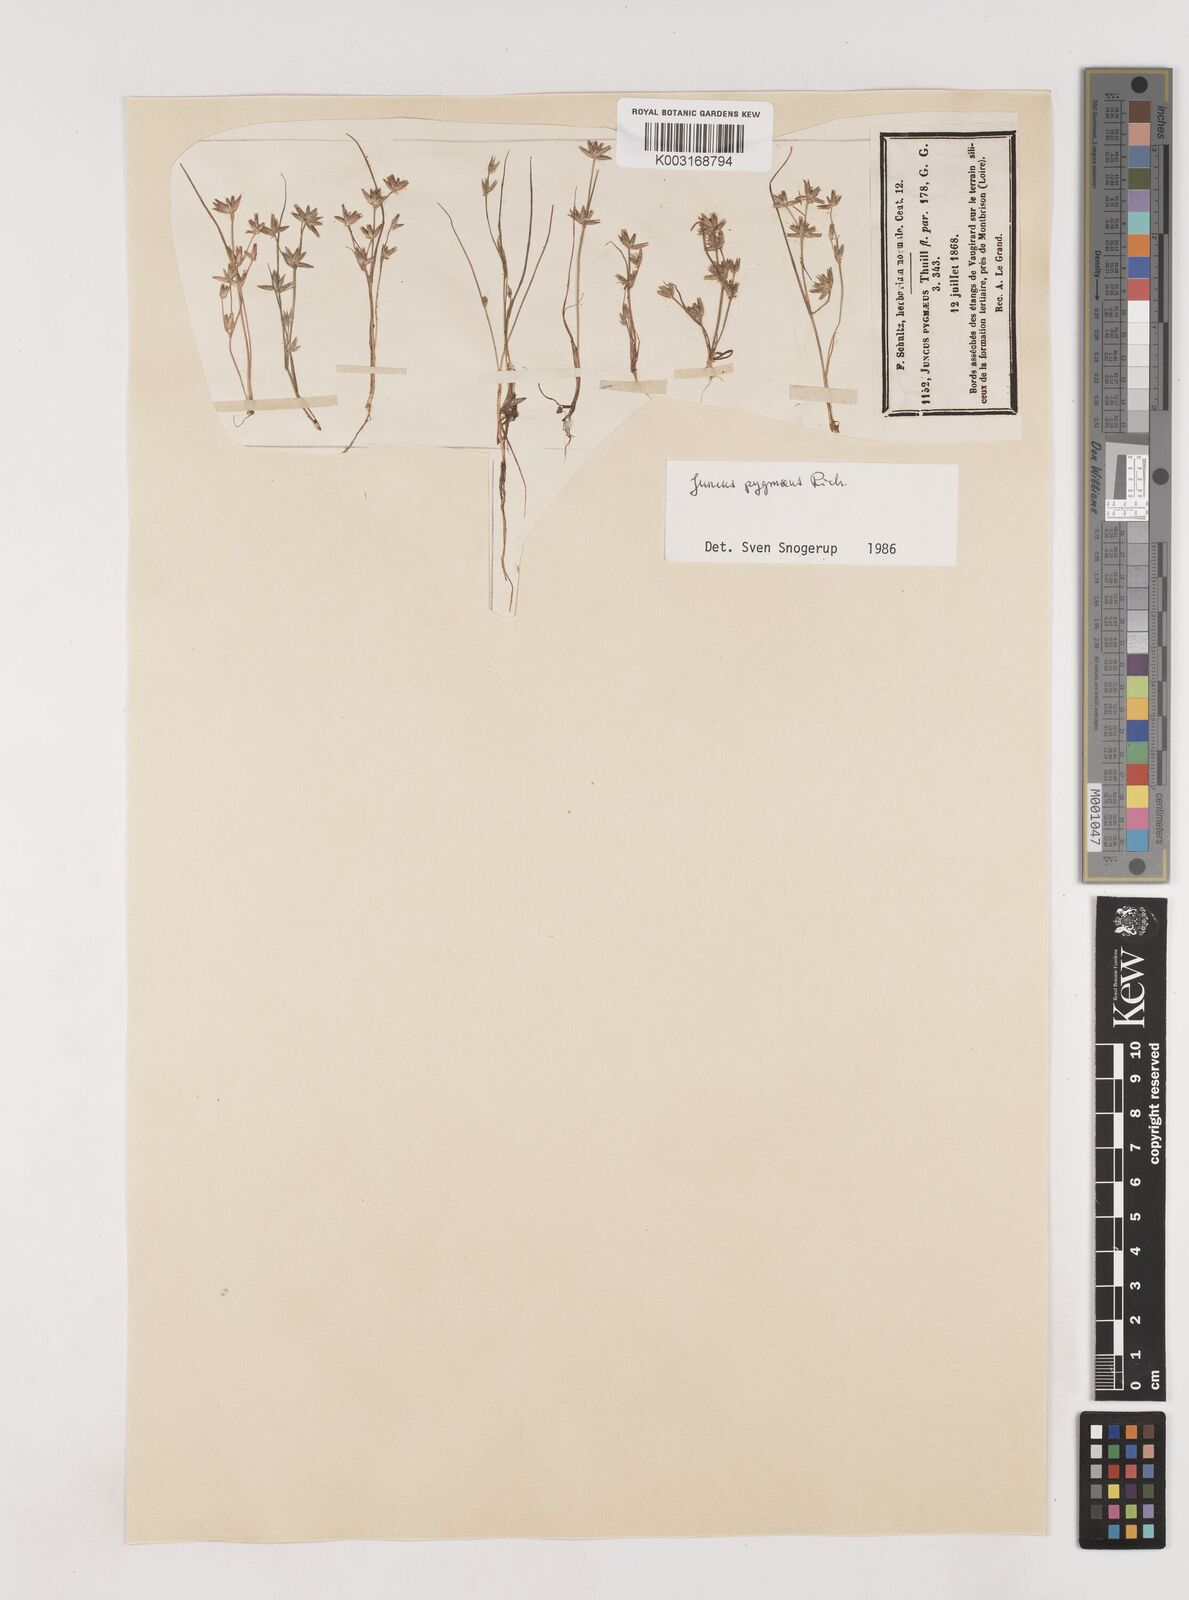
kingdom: Plantae
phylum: Tracheophyta
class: Liliopsida
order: Poales
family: Juncaceae
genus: Juncus
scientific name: Juncus pygmaeus
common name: Pigmy rush
